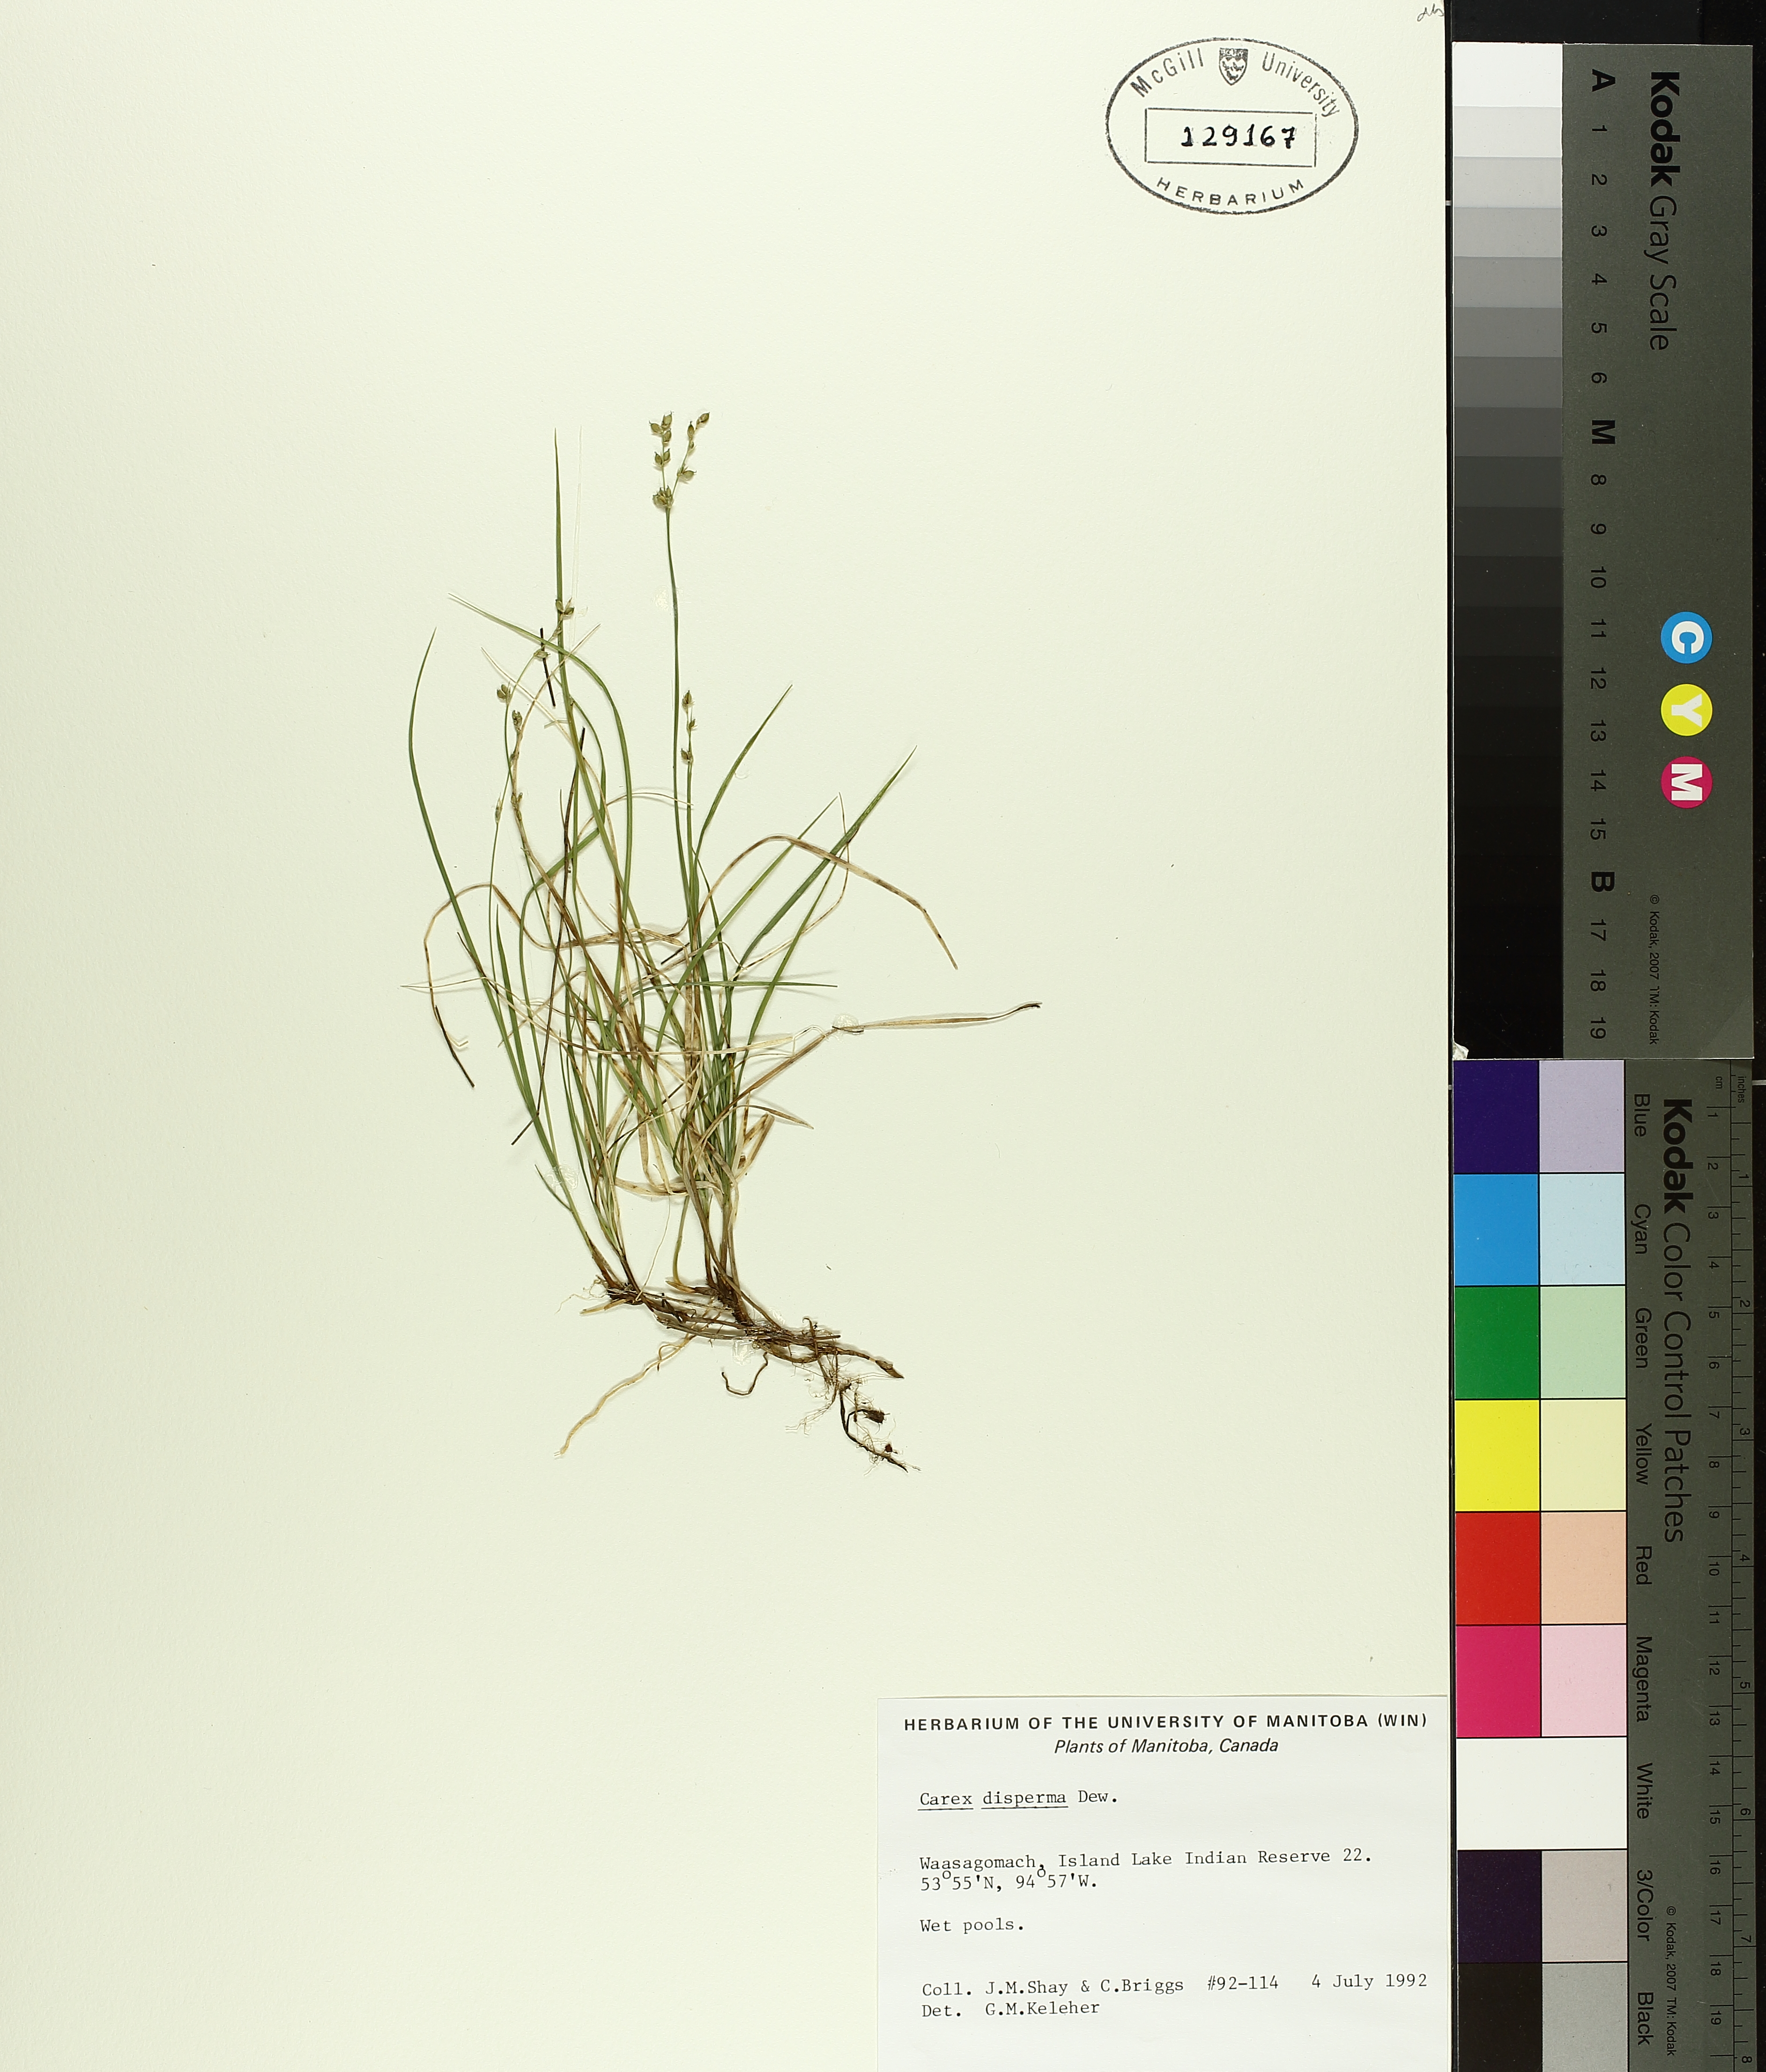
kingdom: Plantae
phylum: Tracheophyta
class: Liliopsida
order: Poales
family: Cyperaceae
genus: Carex
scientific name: Carex disperma
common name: Short-leaved sedge
